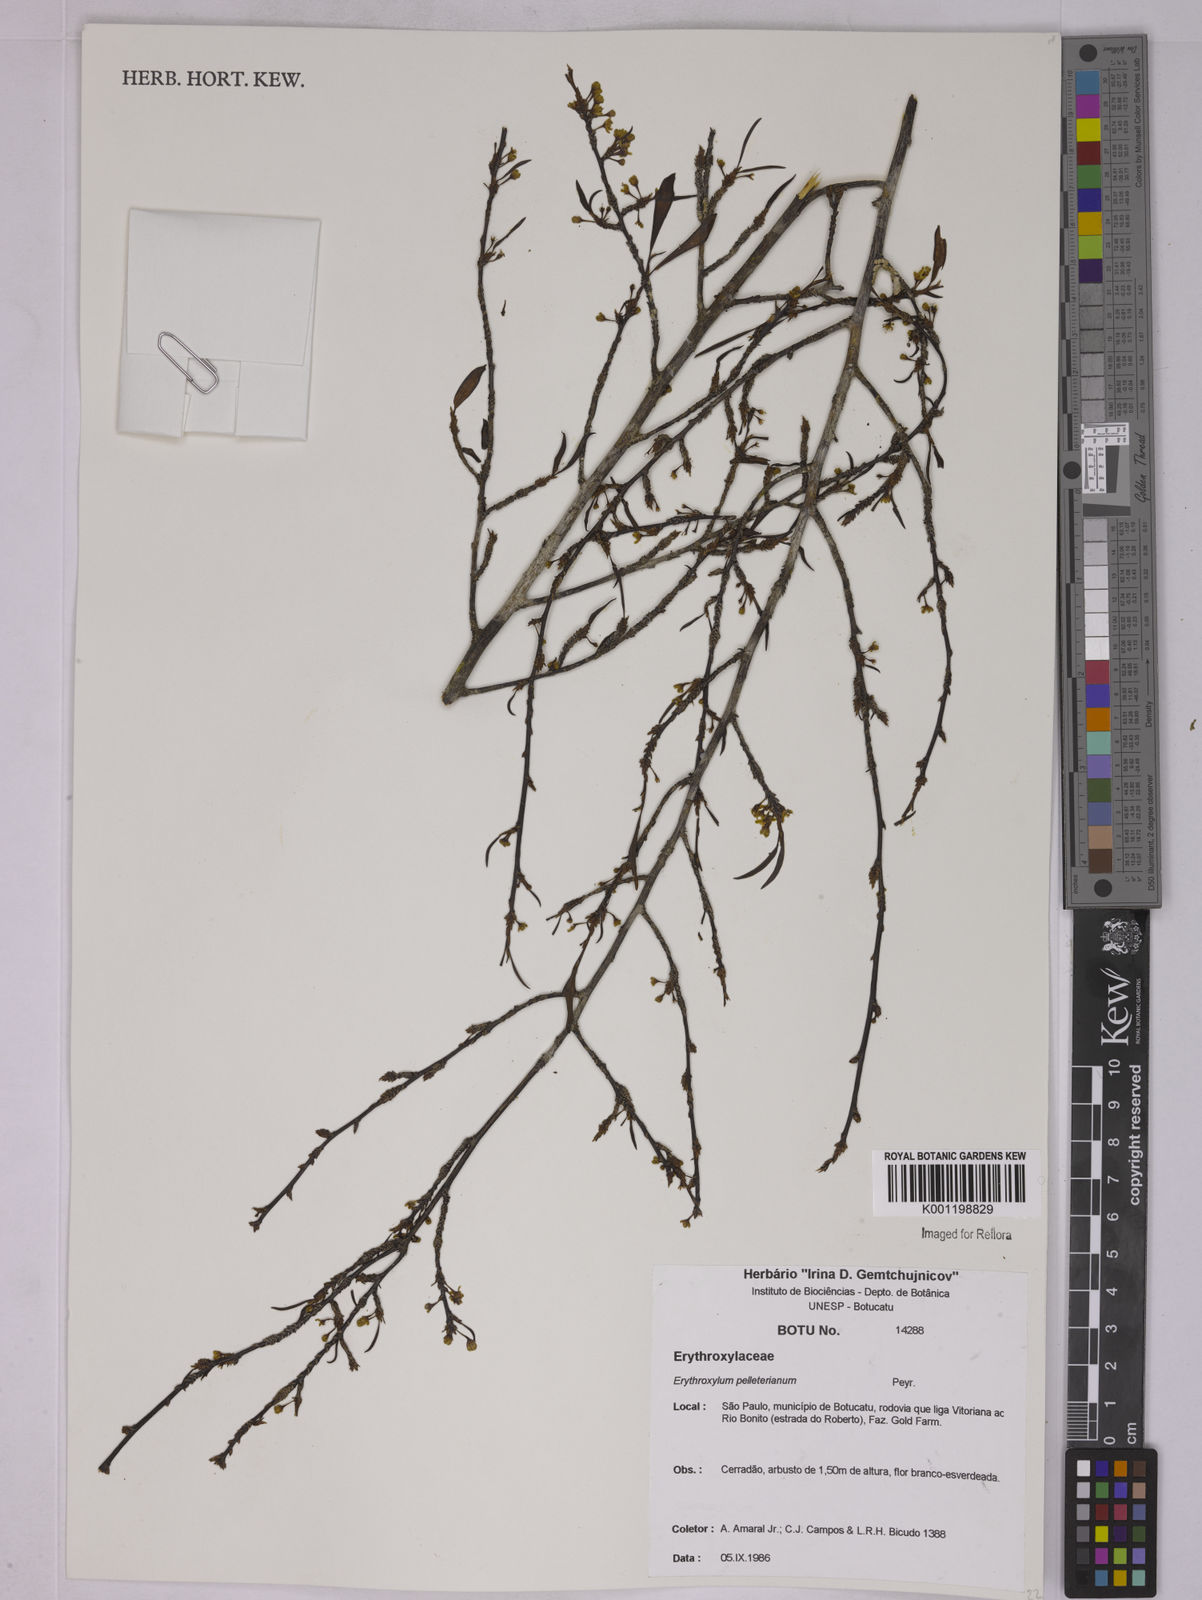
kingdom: Plantae
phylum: Tracheophyta
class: Magnoliopsida
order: Malpighiales
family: Erythroxylaceae
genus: Erythroxylum
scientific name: Erythroxylum pelleterianum
